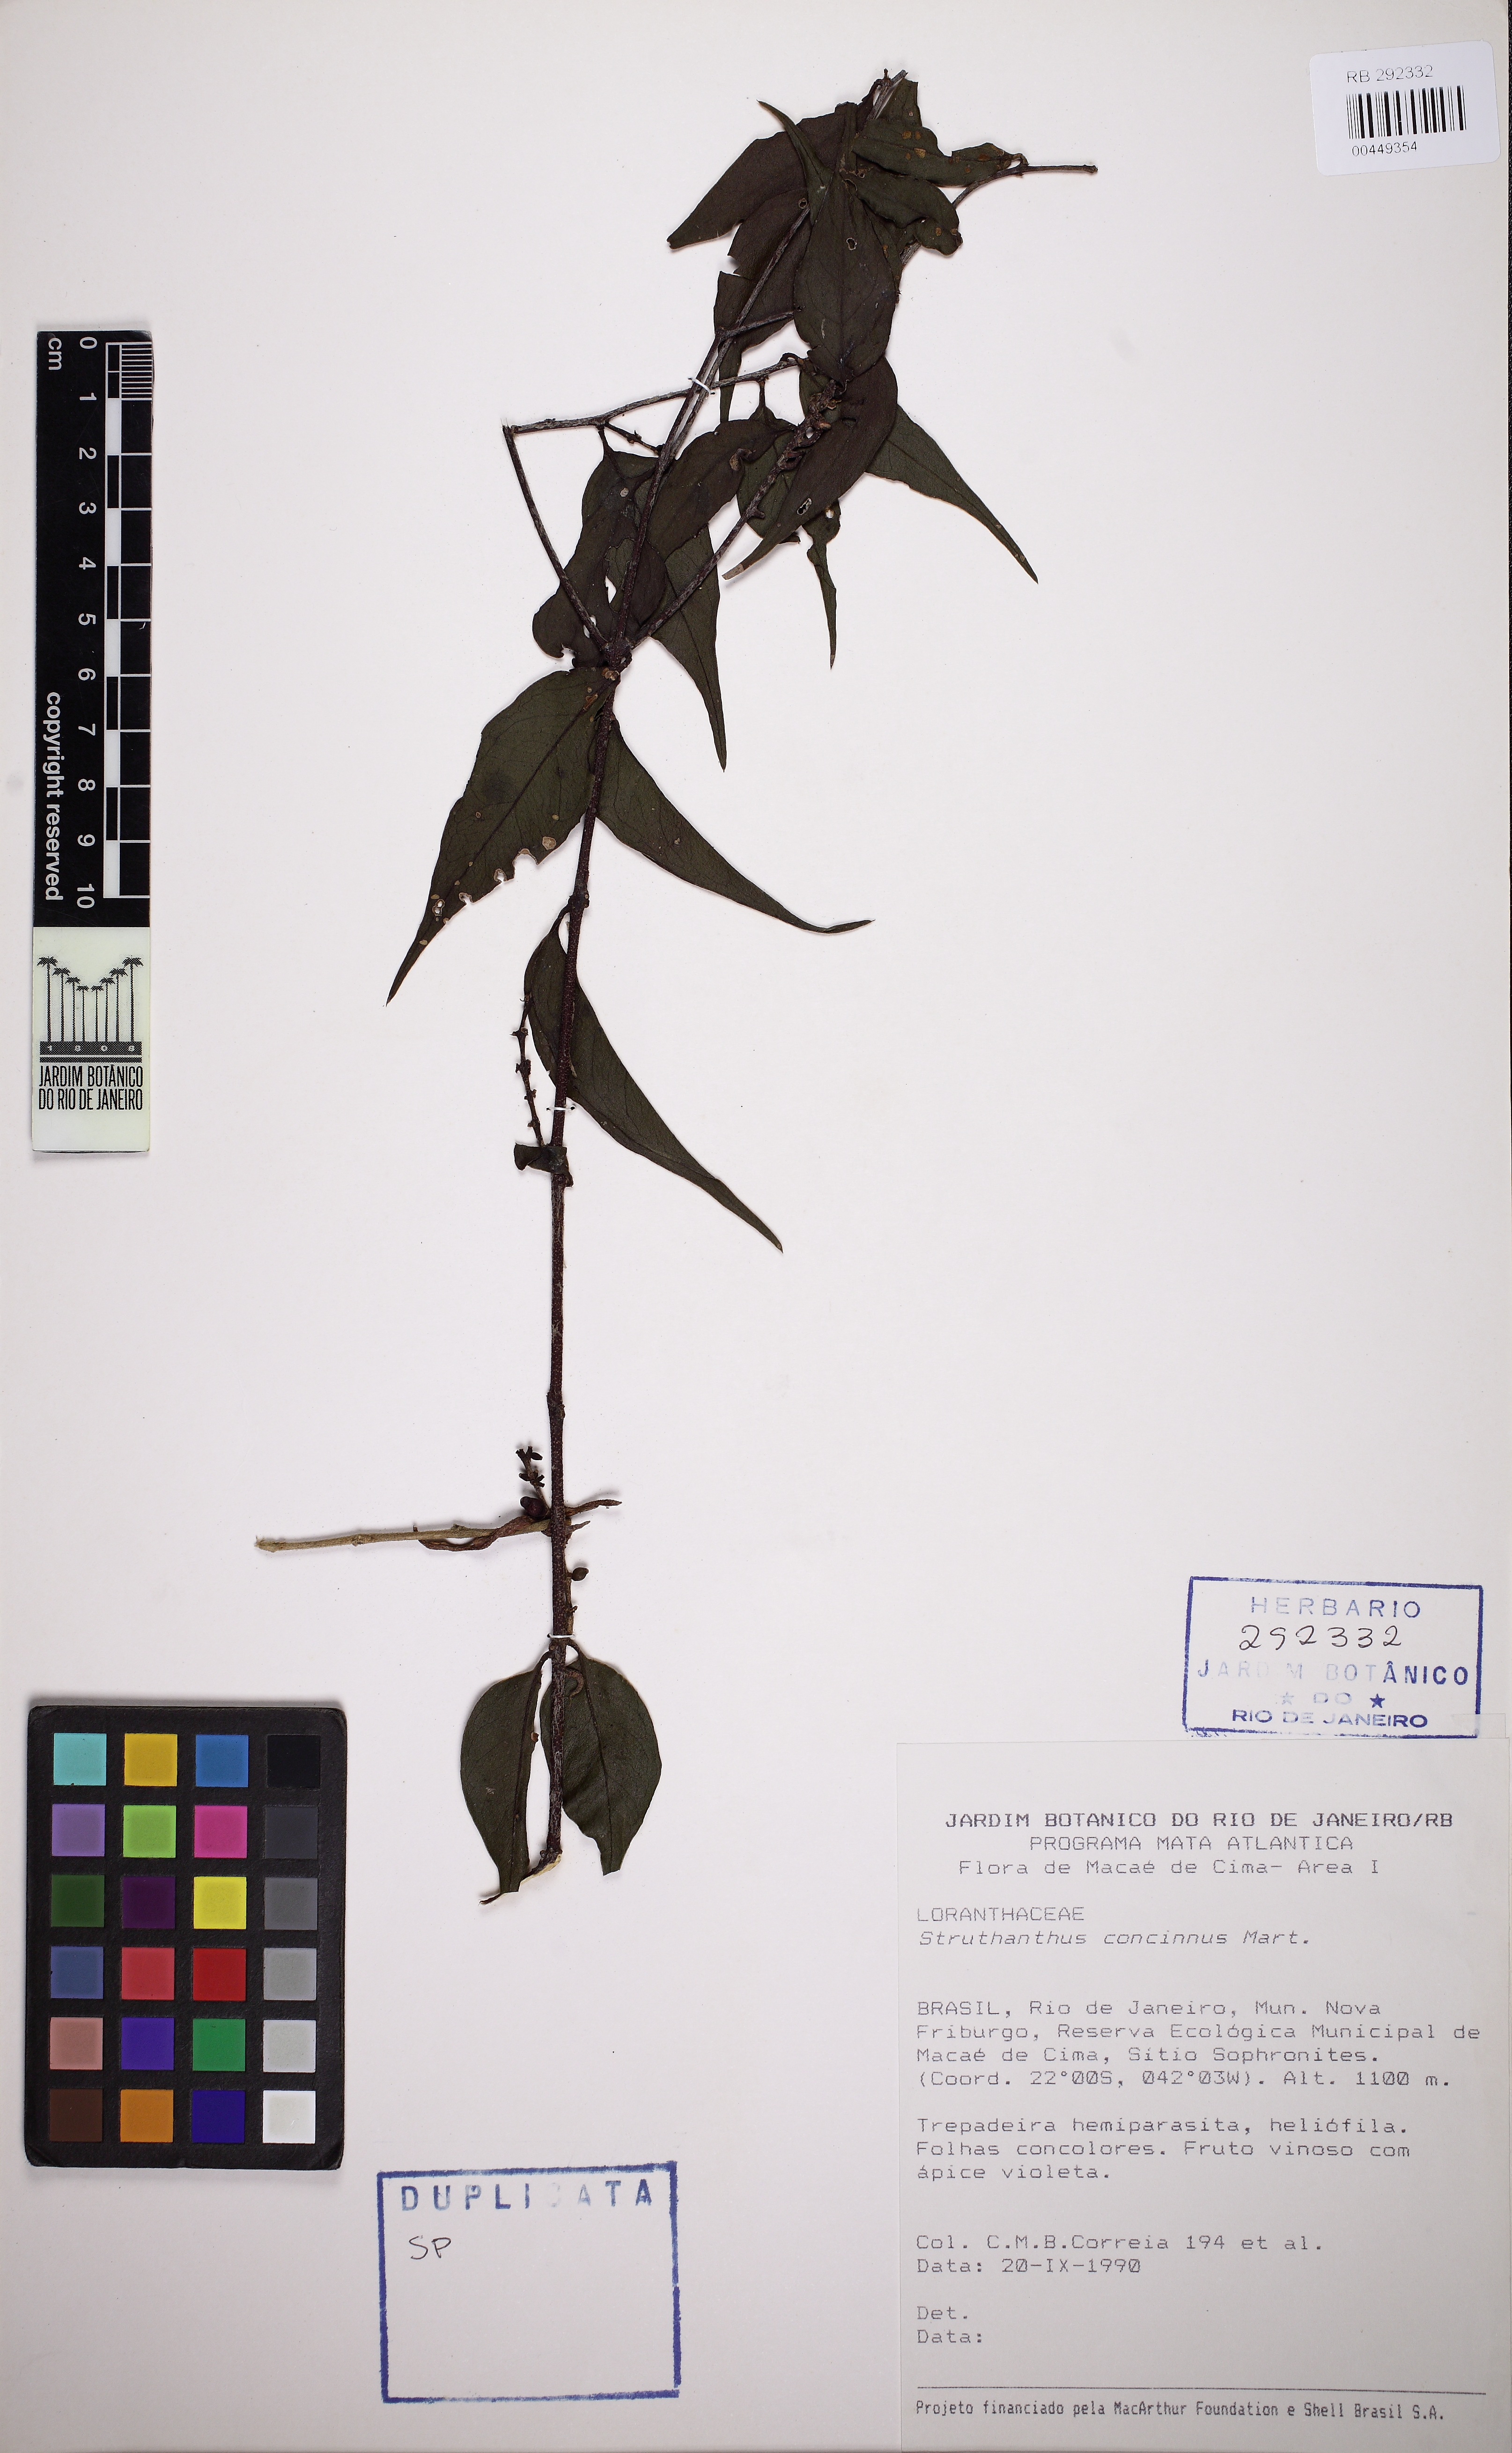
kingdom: Plantae
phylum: Tracheophyta
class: Magnoliopsida
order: Santalales
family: Loranthaceae
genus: Struthanthus
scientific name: Struthanthus concinnus
